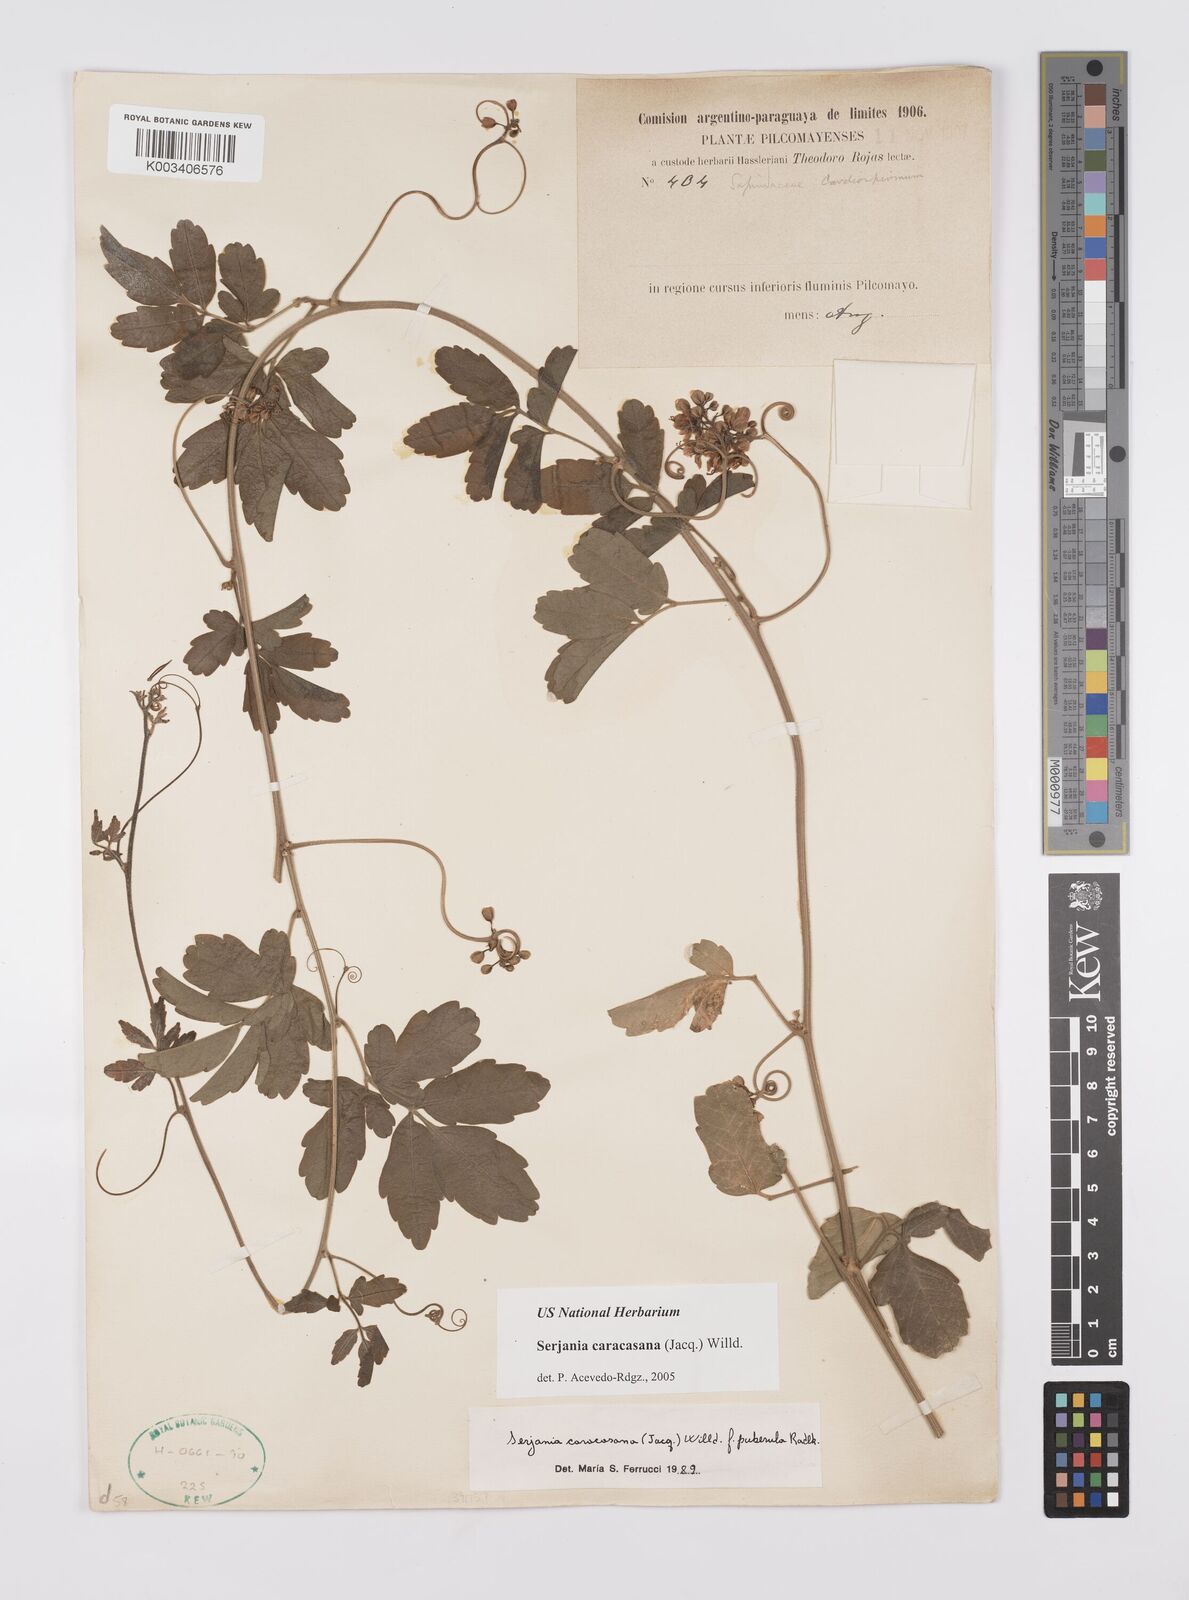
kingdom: Plantae
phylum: Tracheophyta
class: Magnoliopsida
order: Sapindales
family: Sapindaceae
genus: Serjania
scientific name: Serjania caracasana
